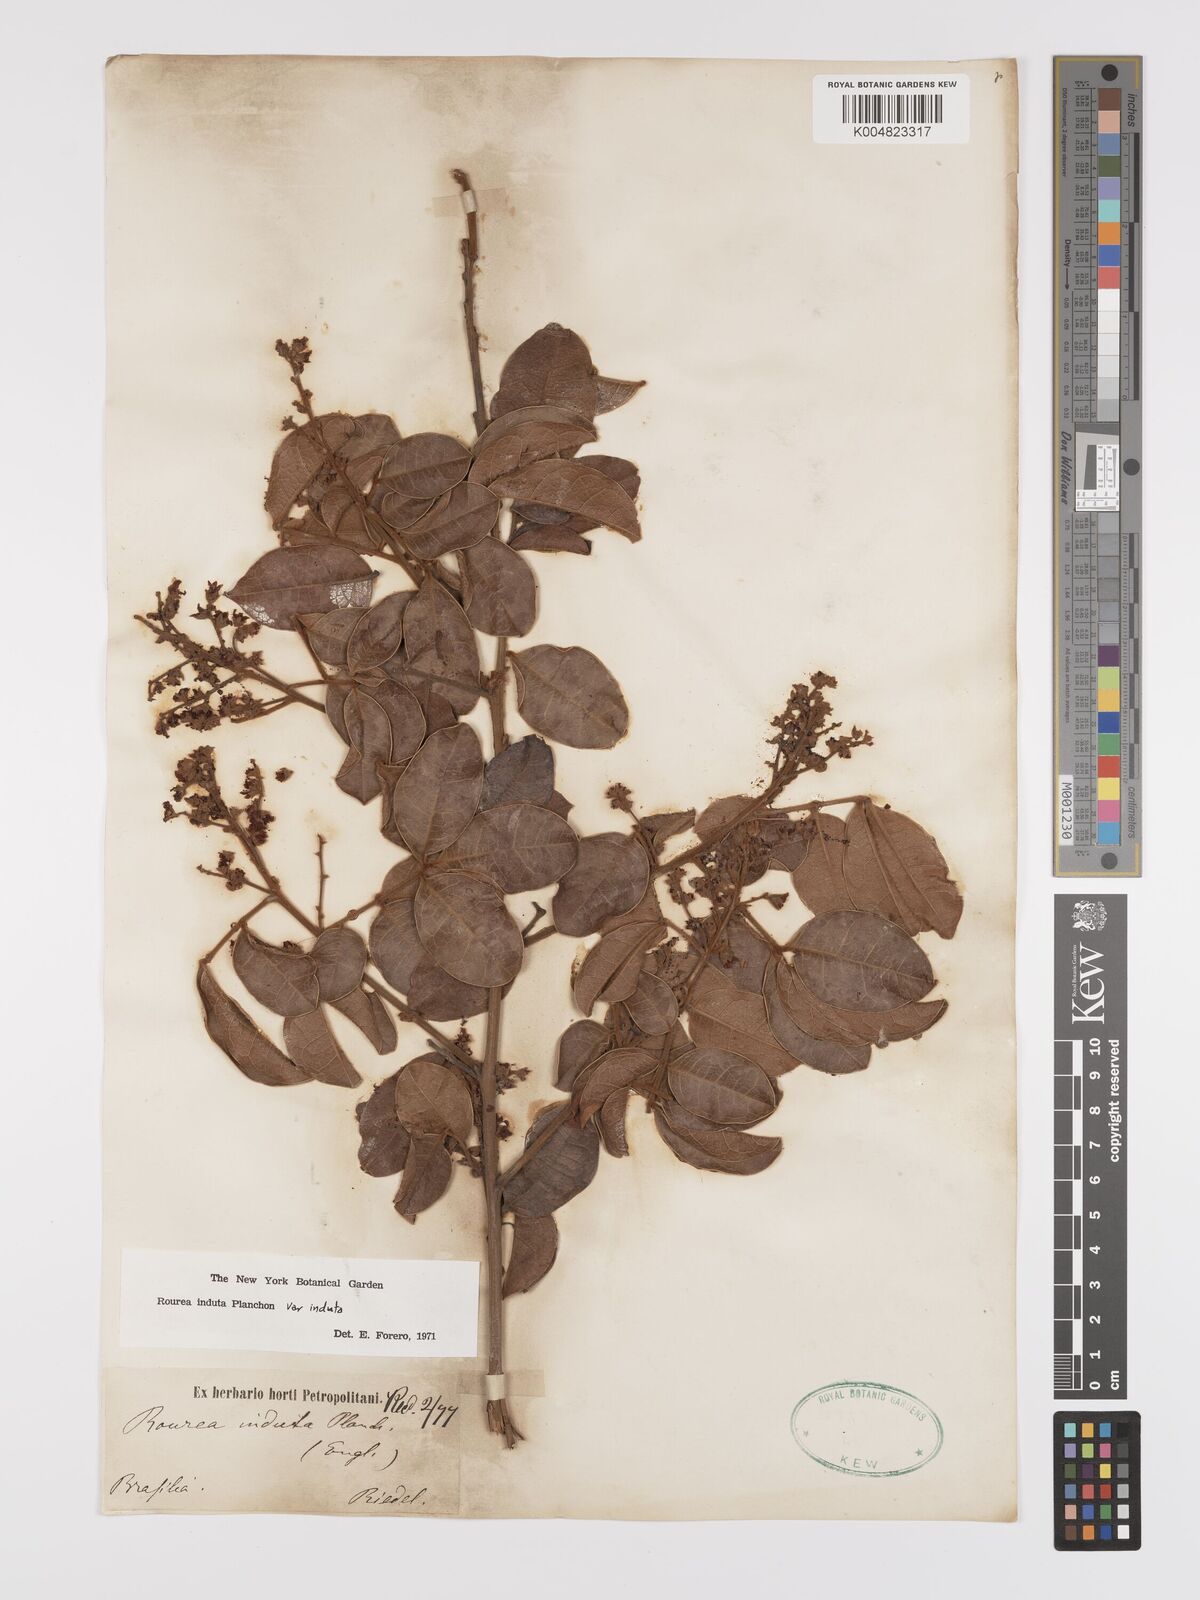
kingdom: Plantae
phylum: Tracheophyta
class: Magnoliopsida
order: Oxalidales
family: Connaraceae
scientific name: Connaraceae
